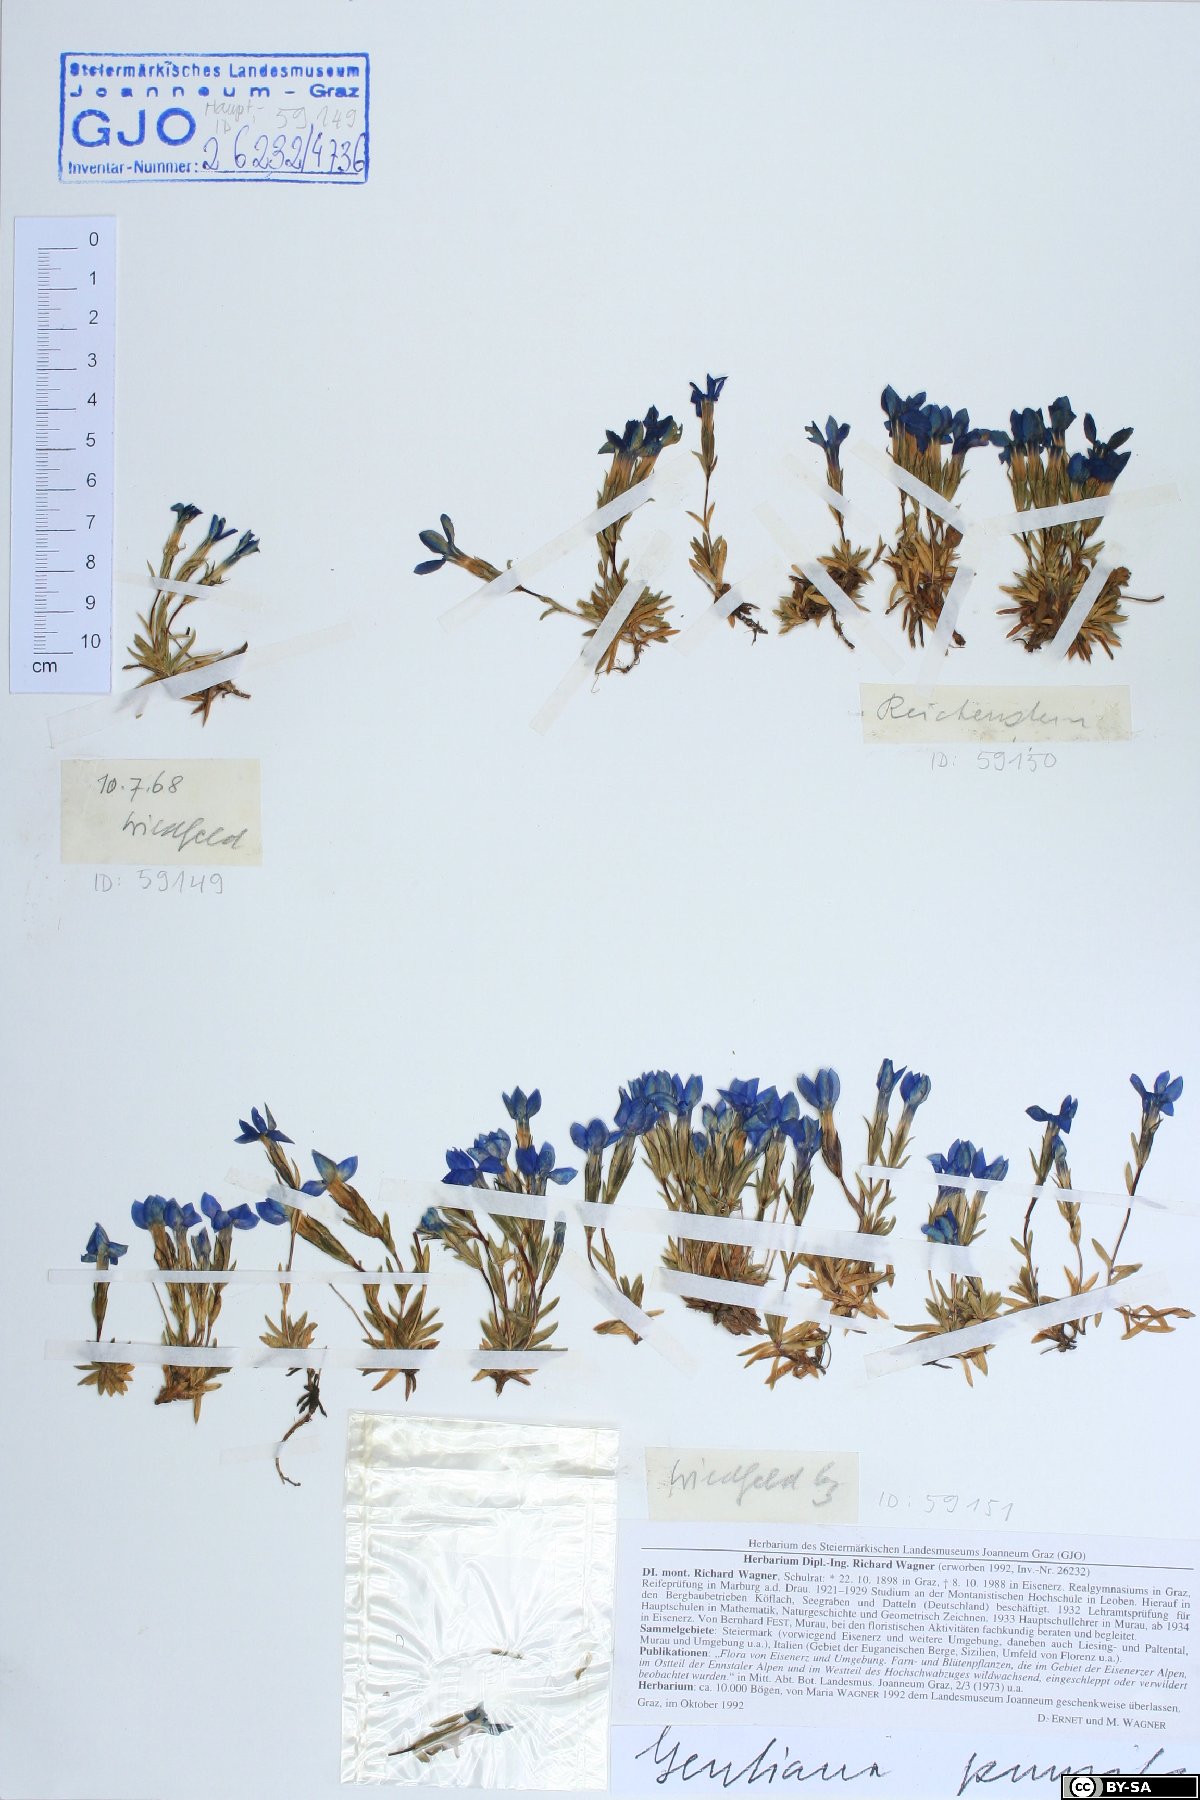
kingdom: Plantae
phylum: Tracheophyta
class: Magnoliopsida
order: Gentianales
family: Gentianaceae
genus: Gentiana
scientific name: Gentiana pumila
